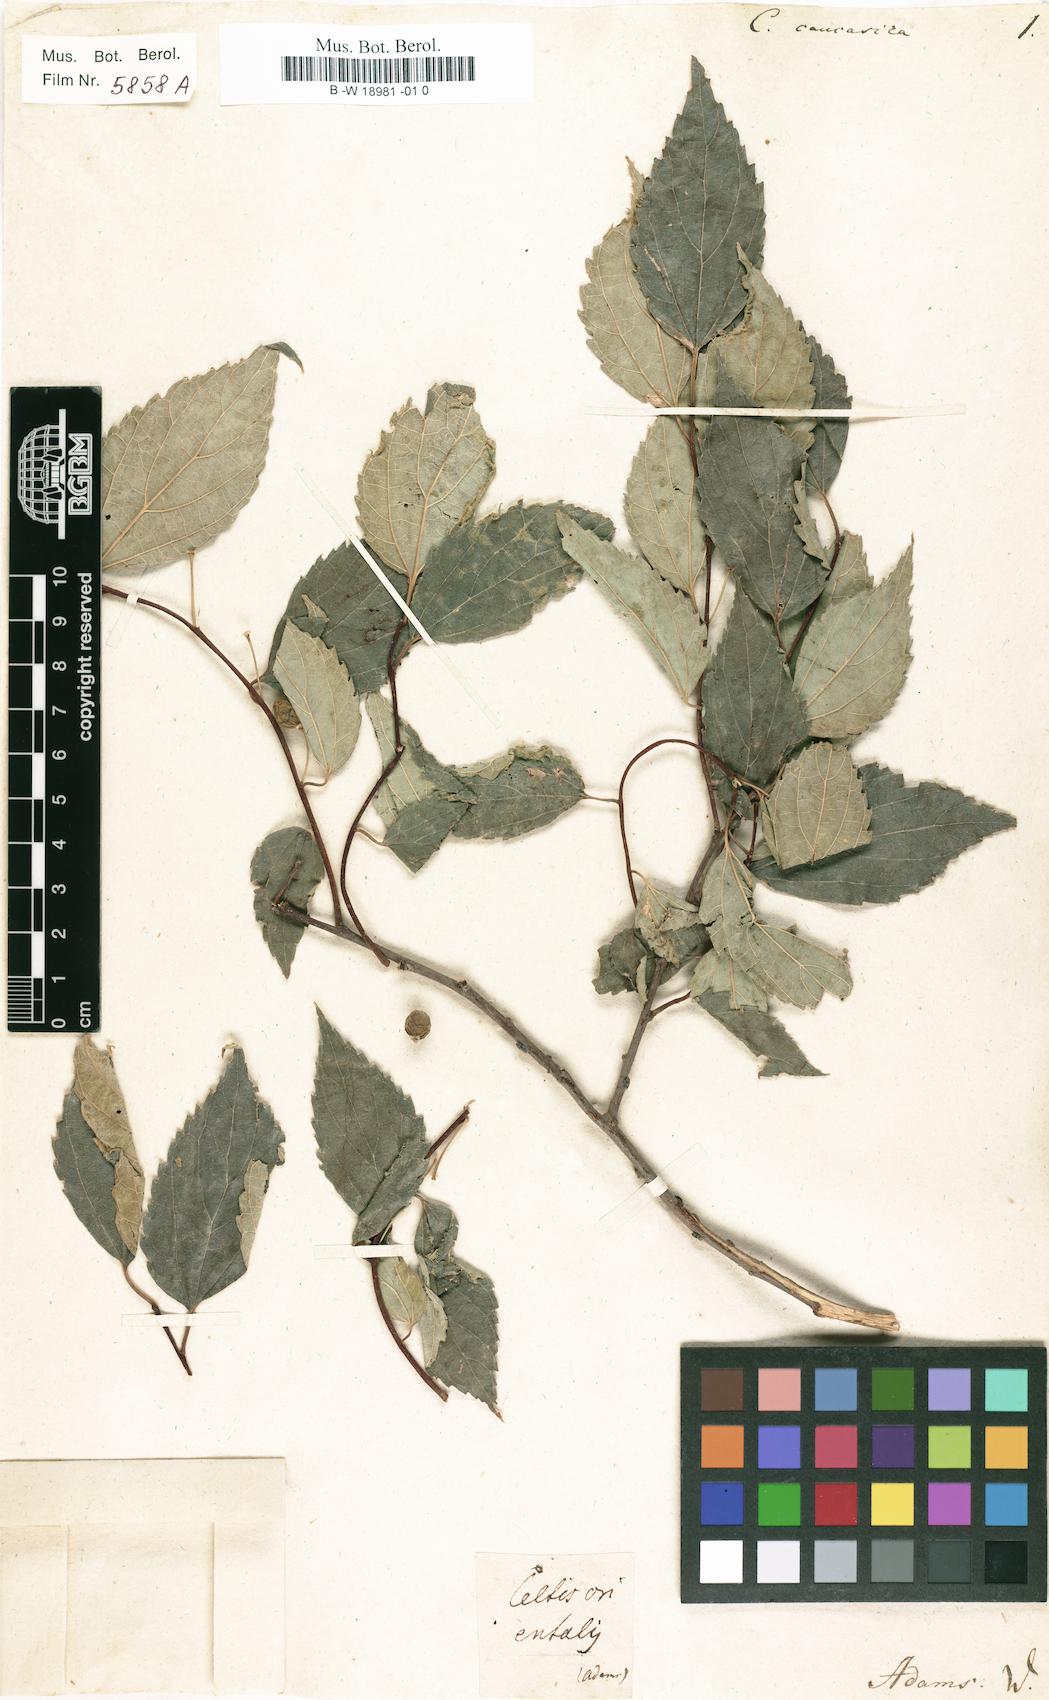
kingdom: Plantae
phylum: Tracheophyta
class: Magnoliopsida
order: Rosales
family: Cannabaceae
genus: Celtis
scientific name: Celtis caucasica
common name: Caucasian hackberry
